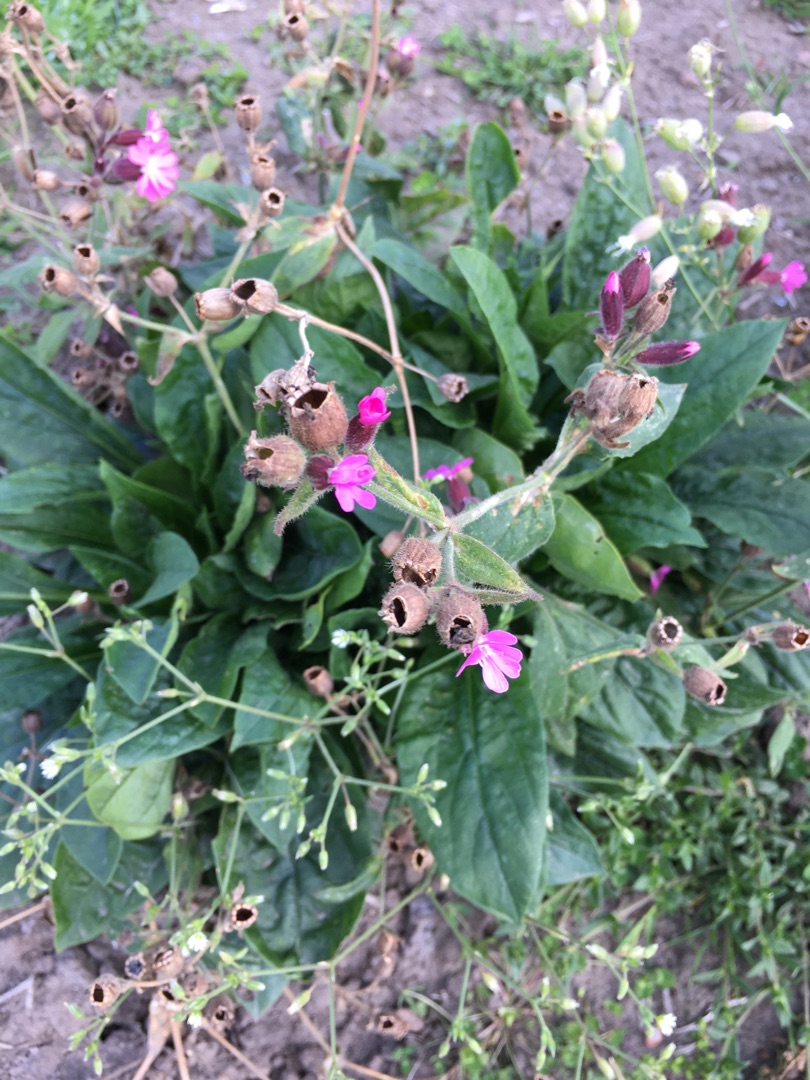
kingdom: Plantae
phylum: Tracheophyta
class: Magnoliopsida
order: Caryophyllales
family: Caryophyllaceae
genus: Silene
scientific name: Silene dioica
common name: Dagpragtstjerne
